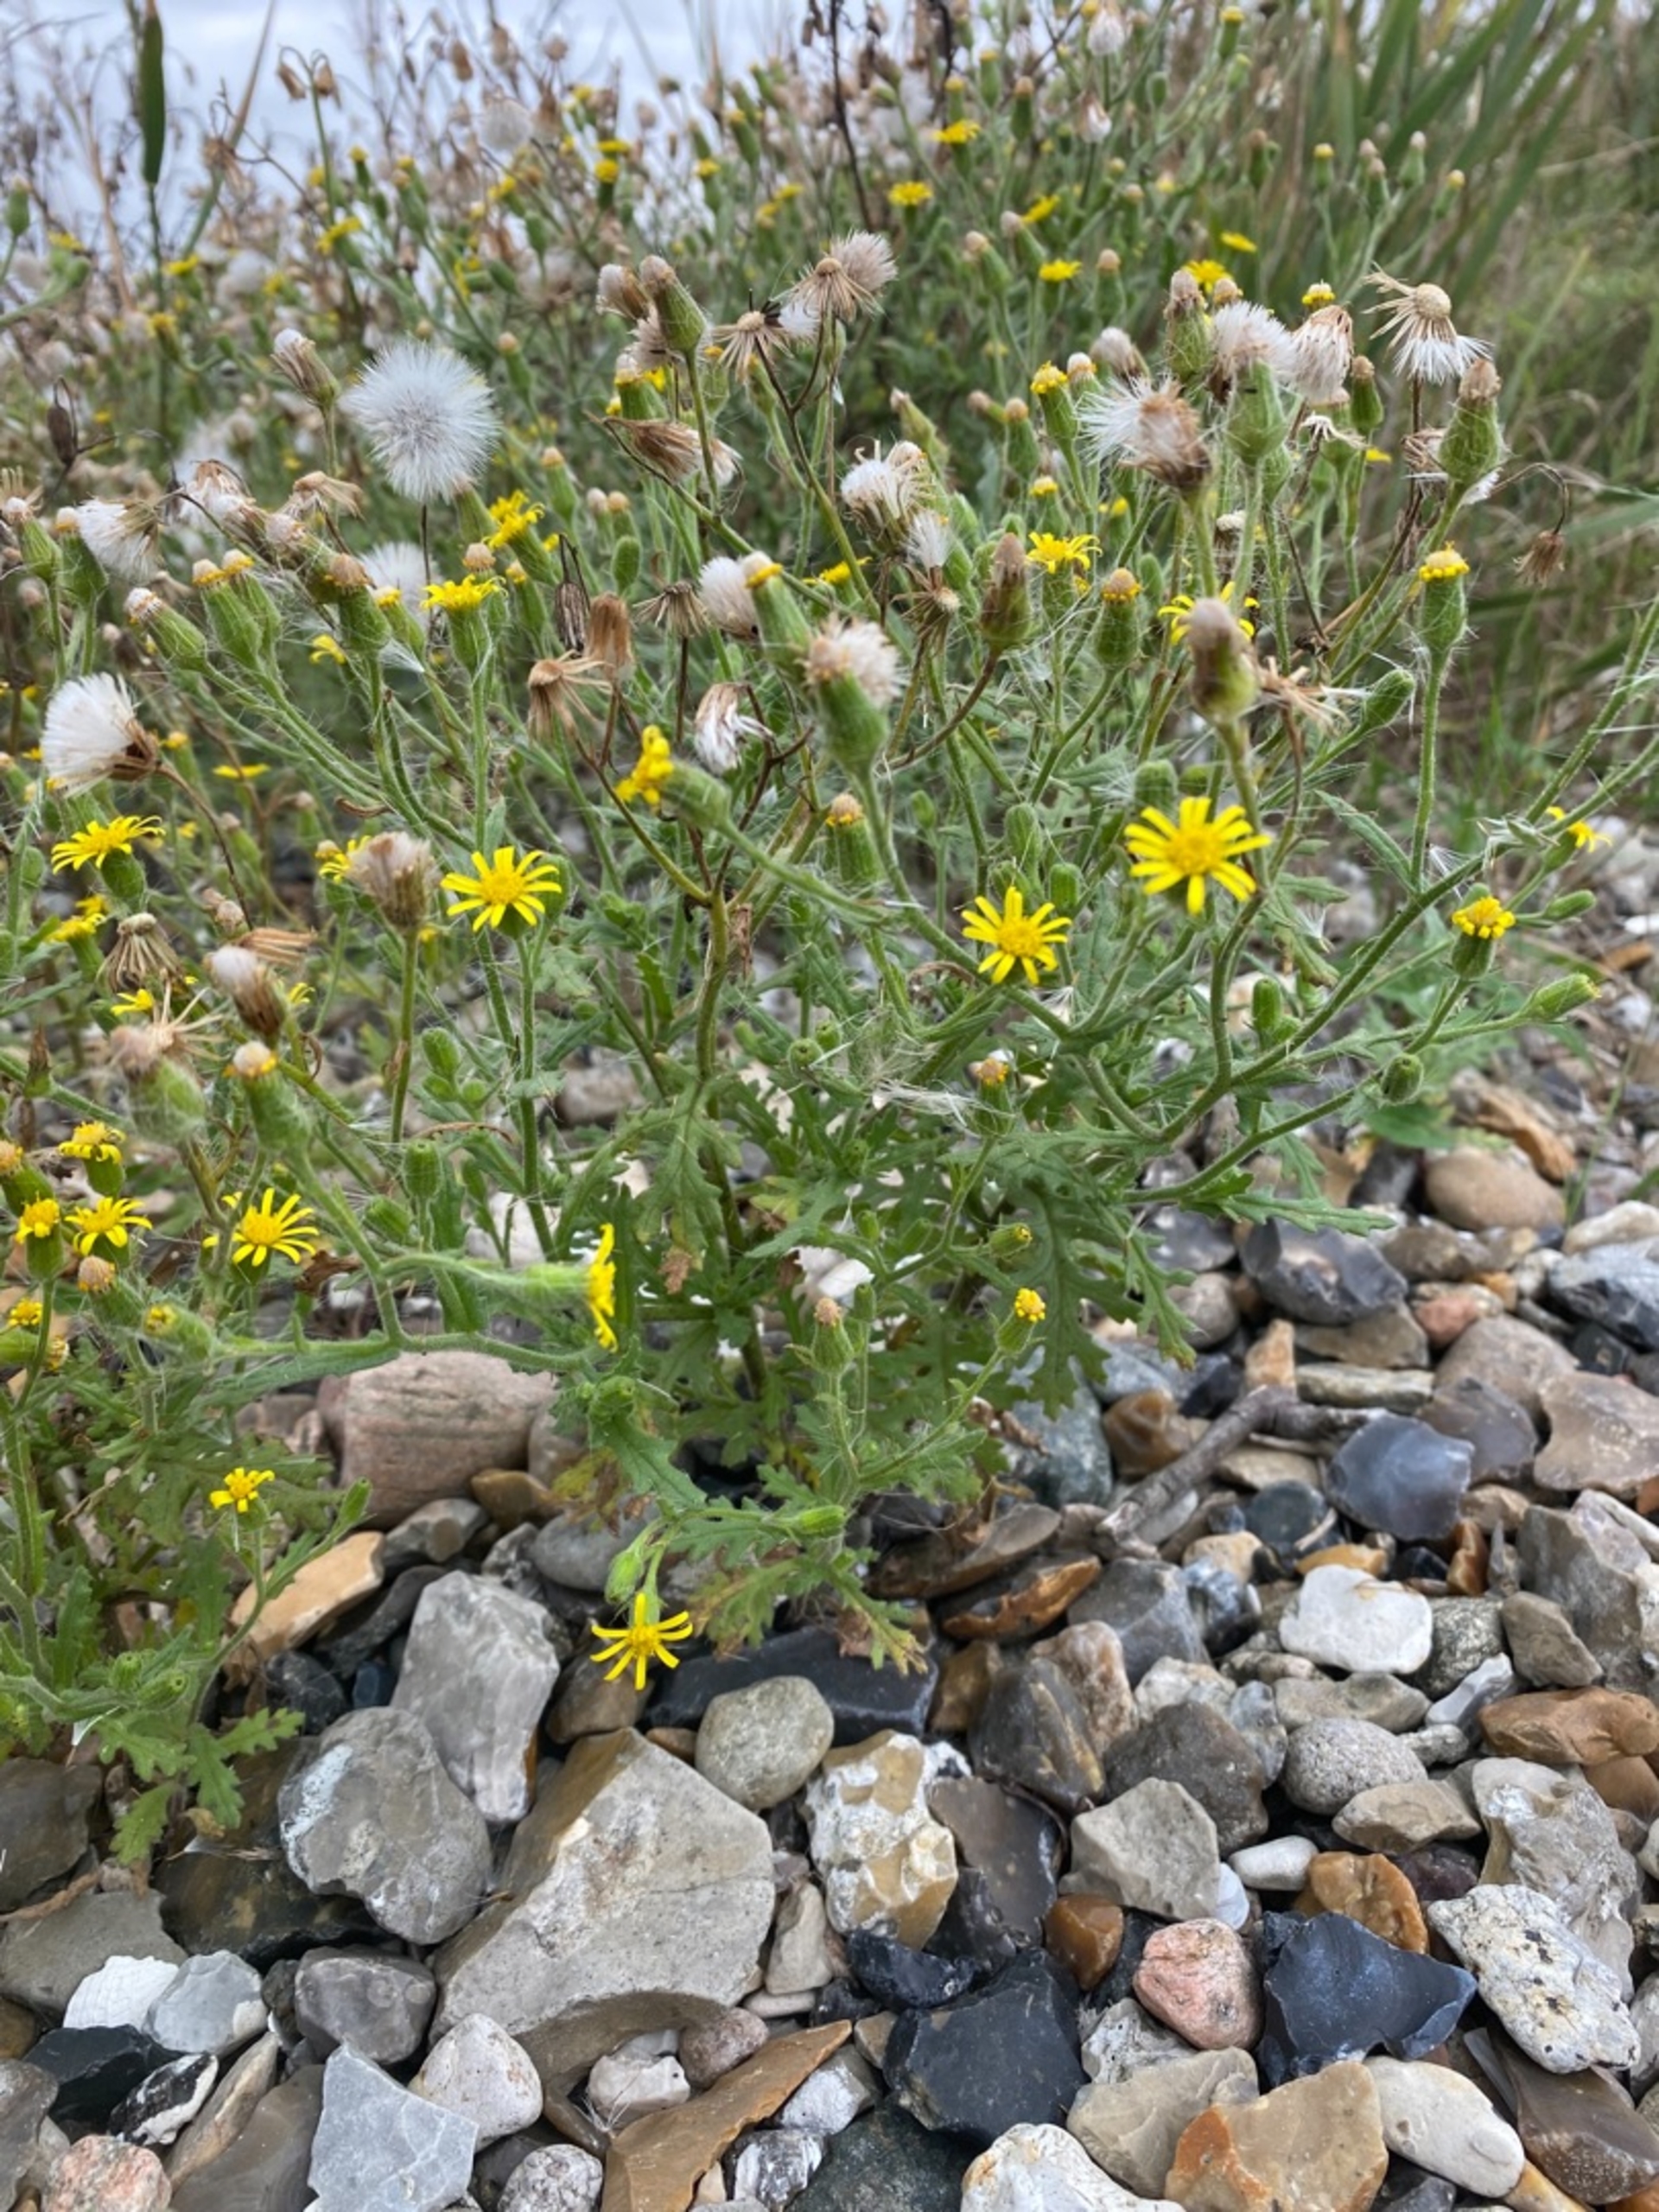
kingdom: Plantae
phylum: Tracheophyta
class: Magnoliopsida
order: Asterales
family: Asteraceae
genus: Senecio
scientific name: Senecio viscosus
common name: Klæbrig brandbæger
